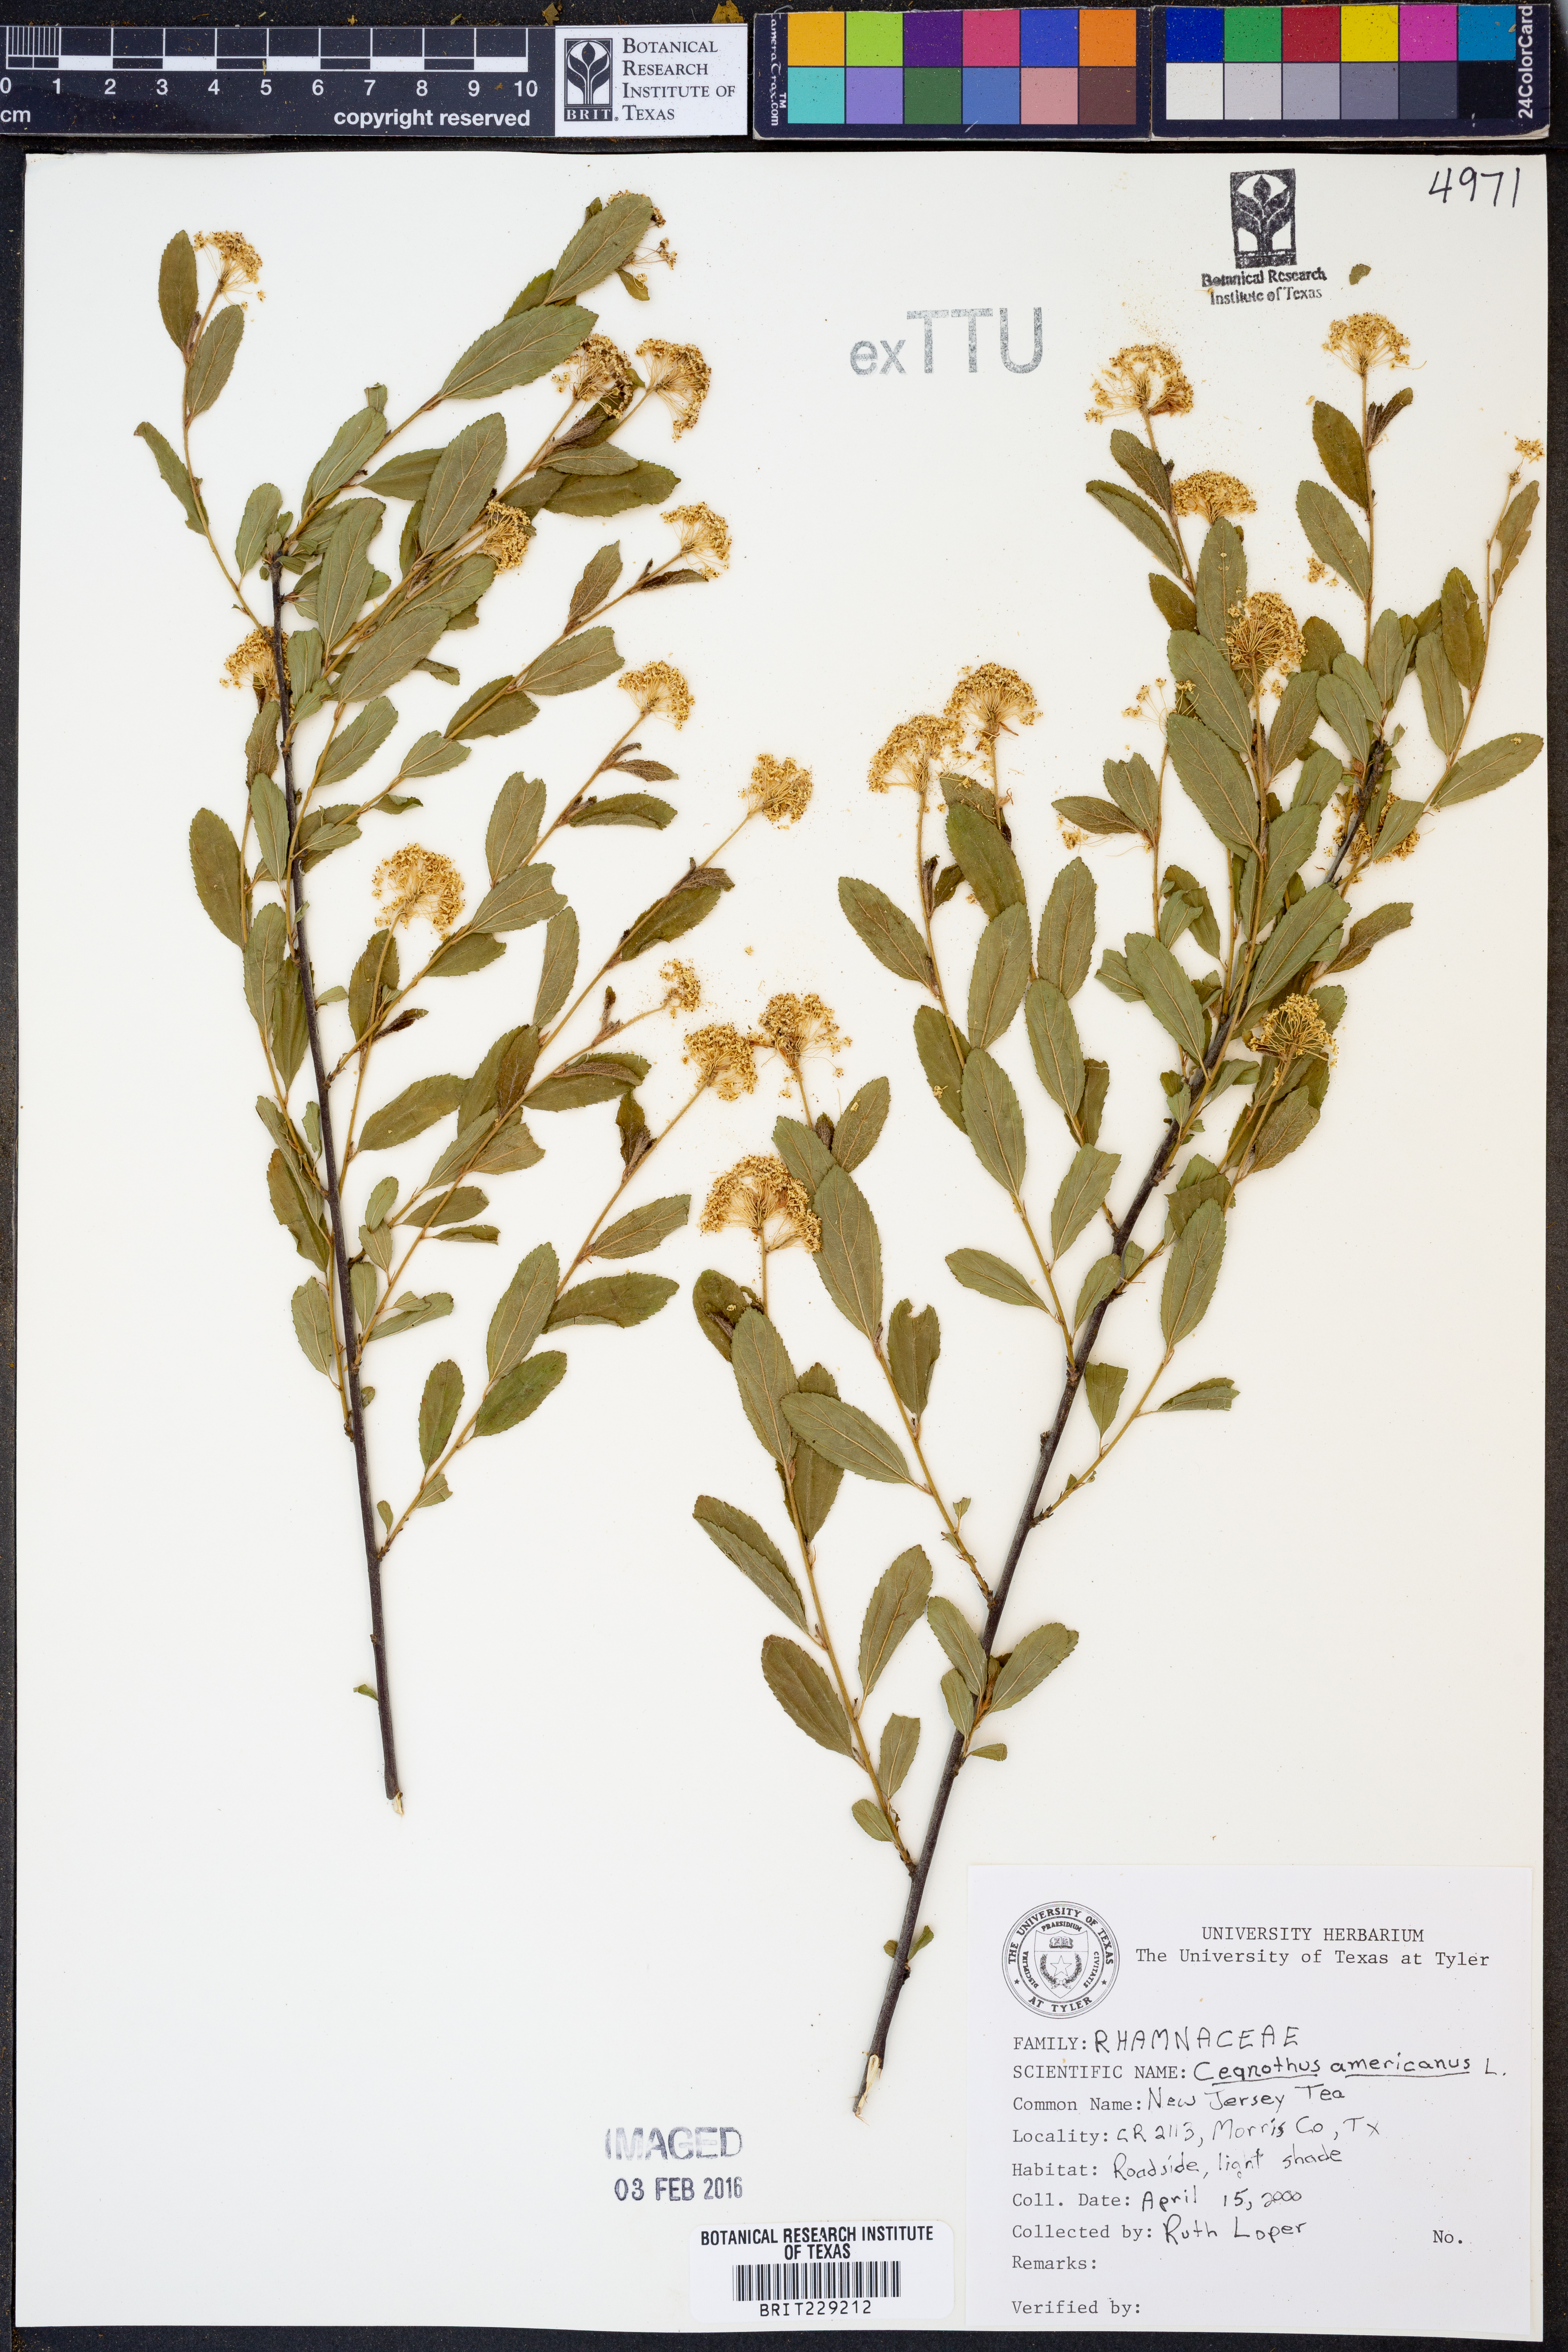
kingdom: Plantae
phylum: Tracheophyta
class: Magnoliopsida
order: Rosales
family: Rhamnaceae
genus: Ceanothus
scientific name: Ceanothus americanus
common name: Redroot
